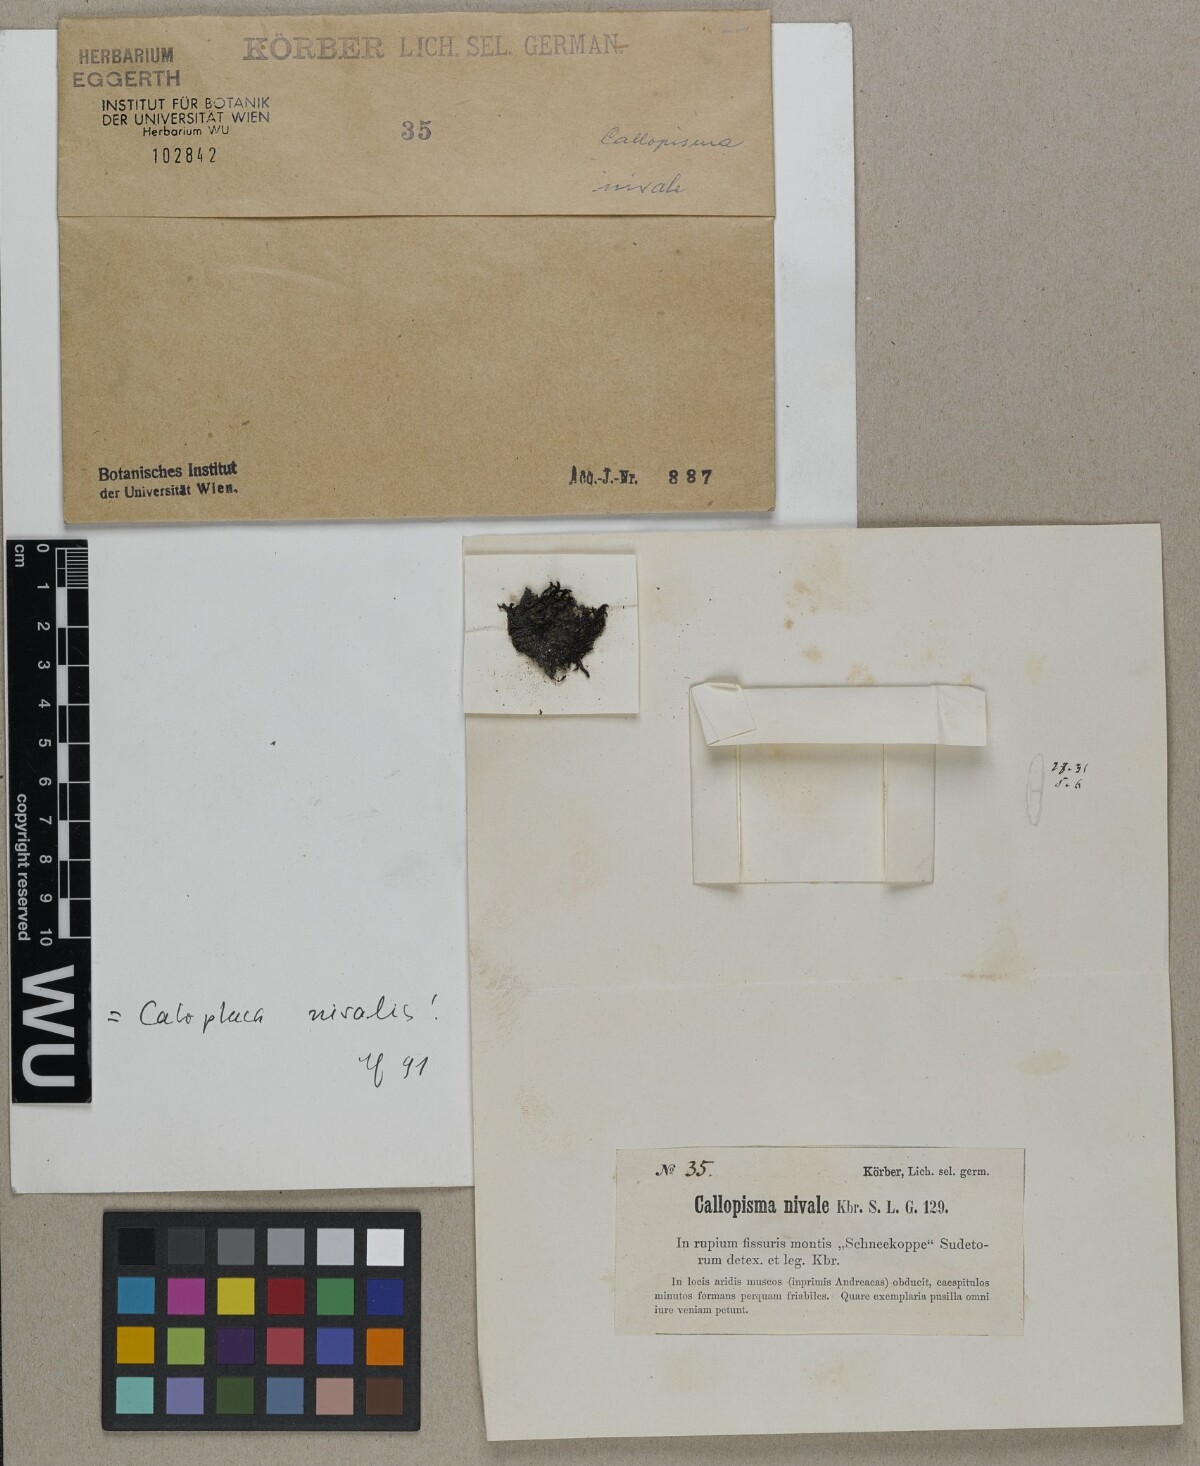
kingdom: Fungi
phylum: Ascomycota
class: Lecanoromycetes
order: Teloschistales
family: Teloschistaceae
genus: Lendemeriella
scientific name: Lendemeriella nivalis
